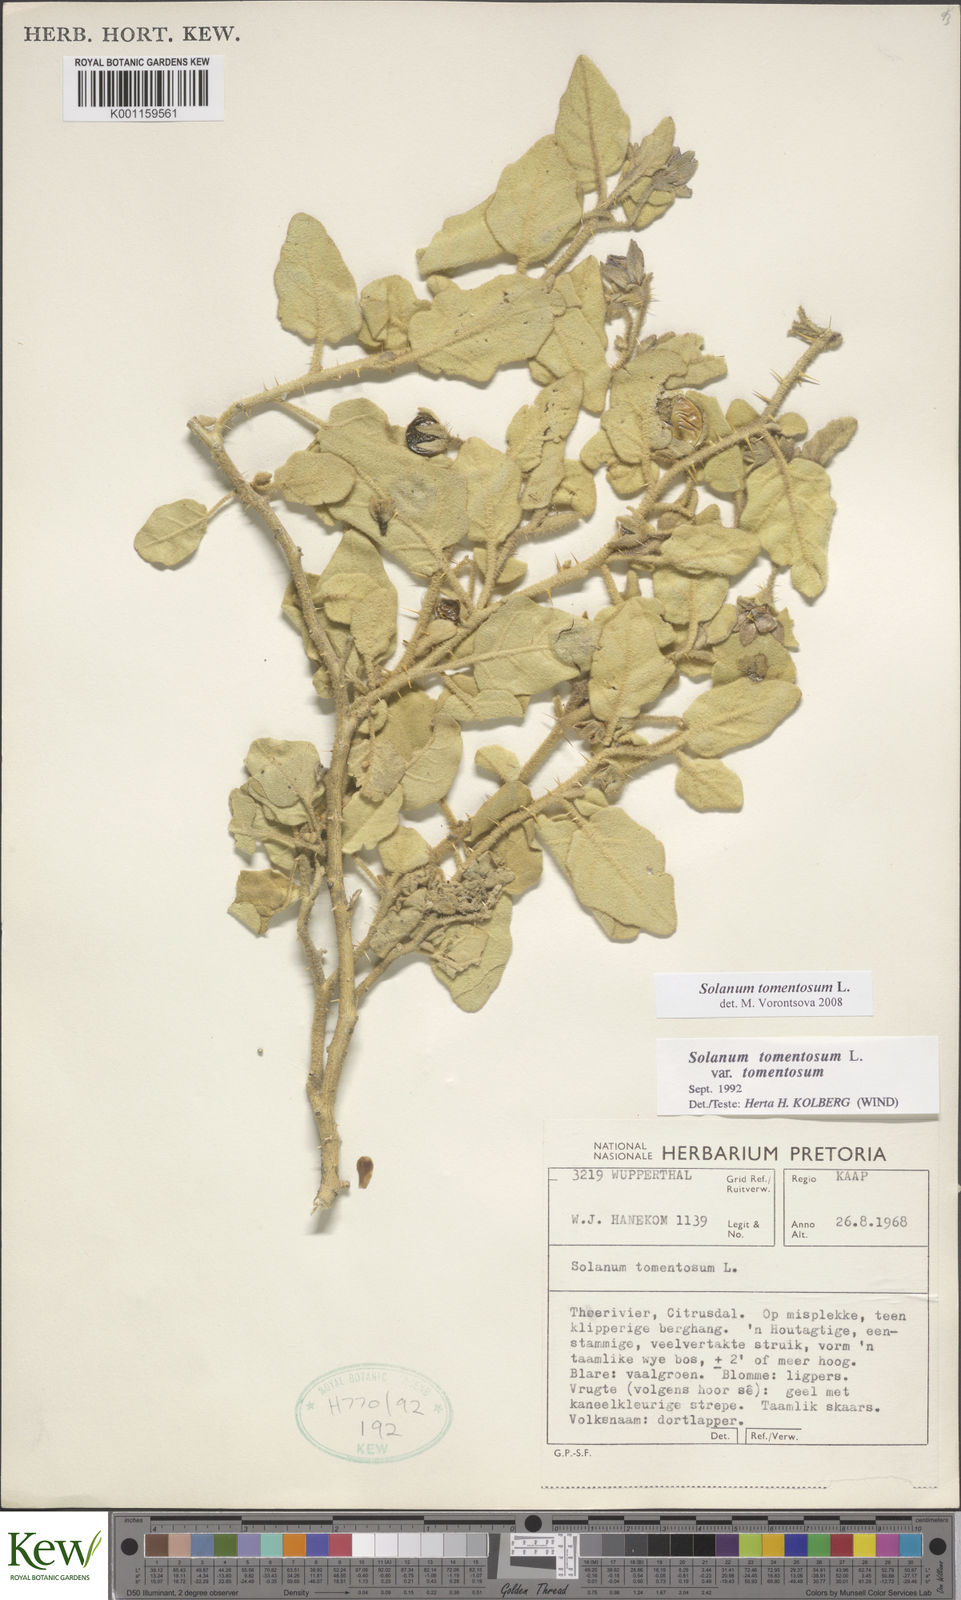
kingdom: Plantae
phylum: Tracheophyta
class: Magnoliopsida
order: Solanales
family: Solanaceae
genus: Solanum
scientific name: Solanum tomentosum
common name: Wild aubergine
